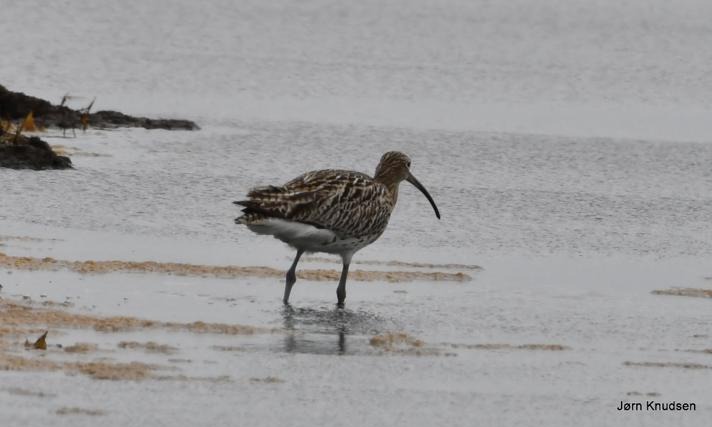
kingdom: Animalia
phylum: Chordata
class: Aves
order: Charadriiformes
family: Scolopacidae
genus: Numenius
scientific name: Numenius arquata
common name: Storspove
